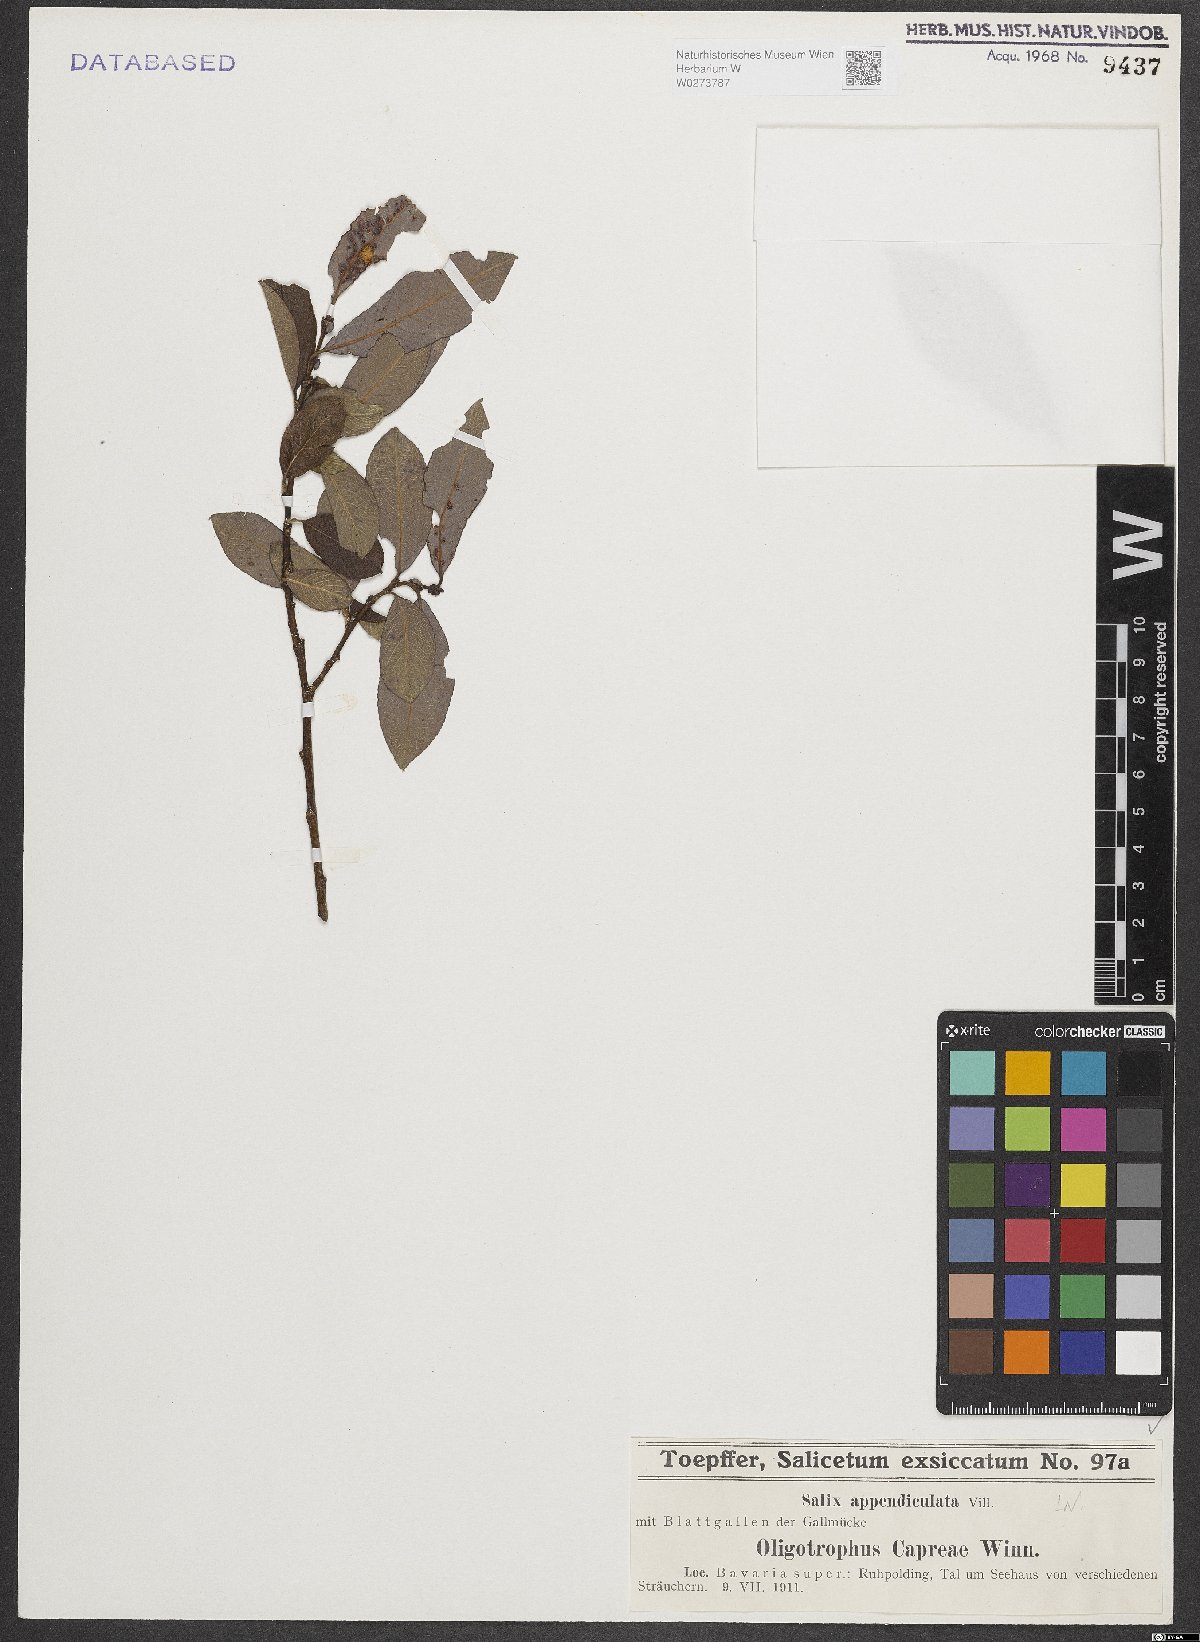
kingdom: Plantae
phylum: Tracheophyta
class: Magnoliopsida
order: Malpighiales
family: Salicaceae
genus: Salix
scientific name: Salix appendiculata
